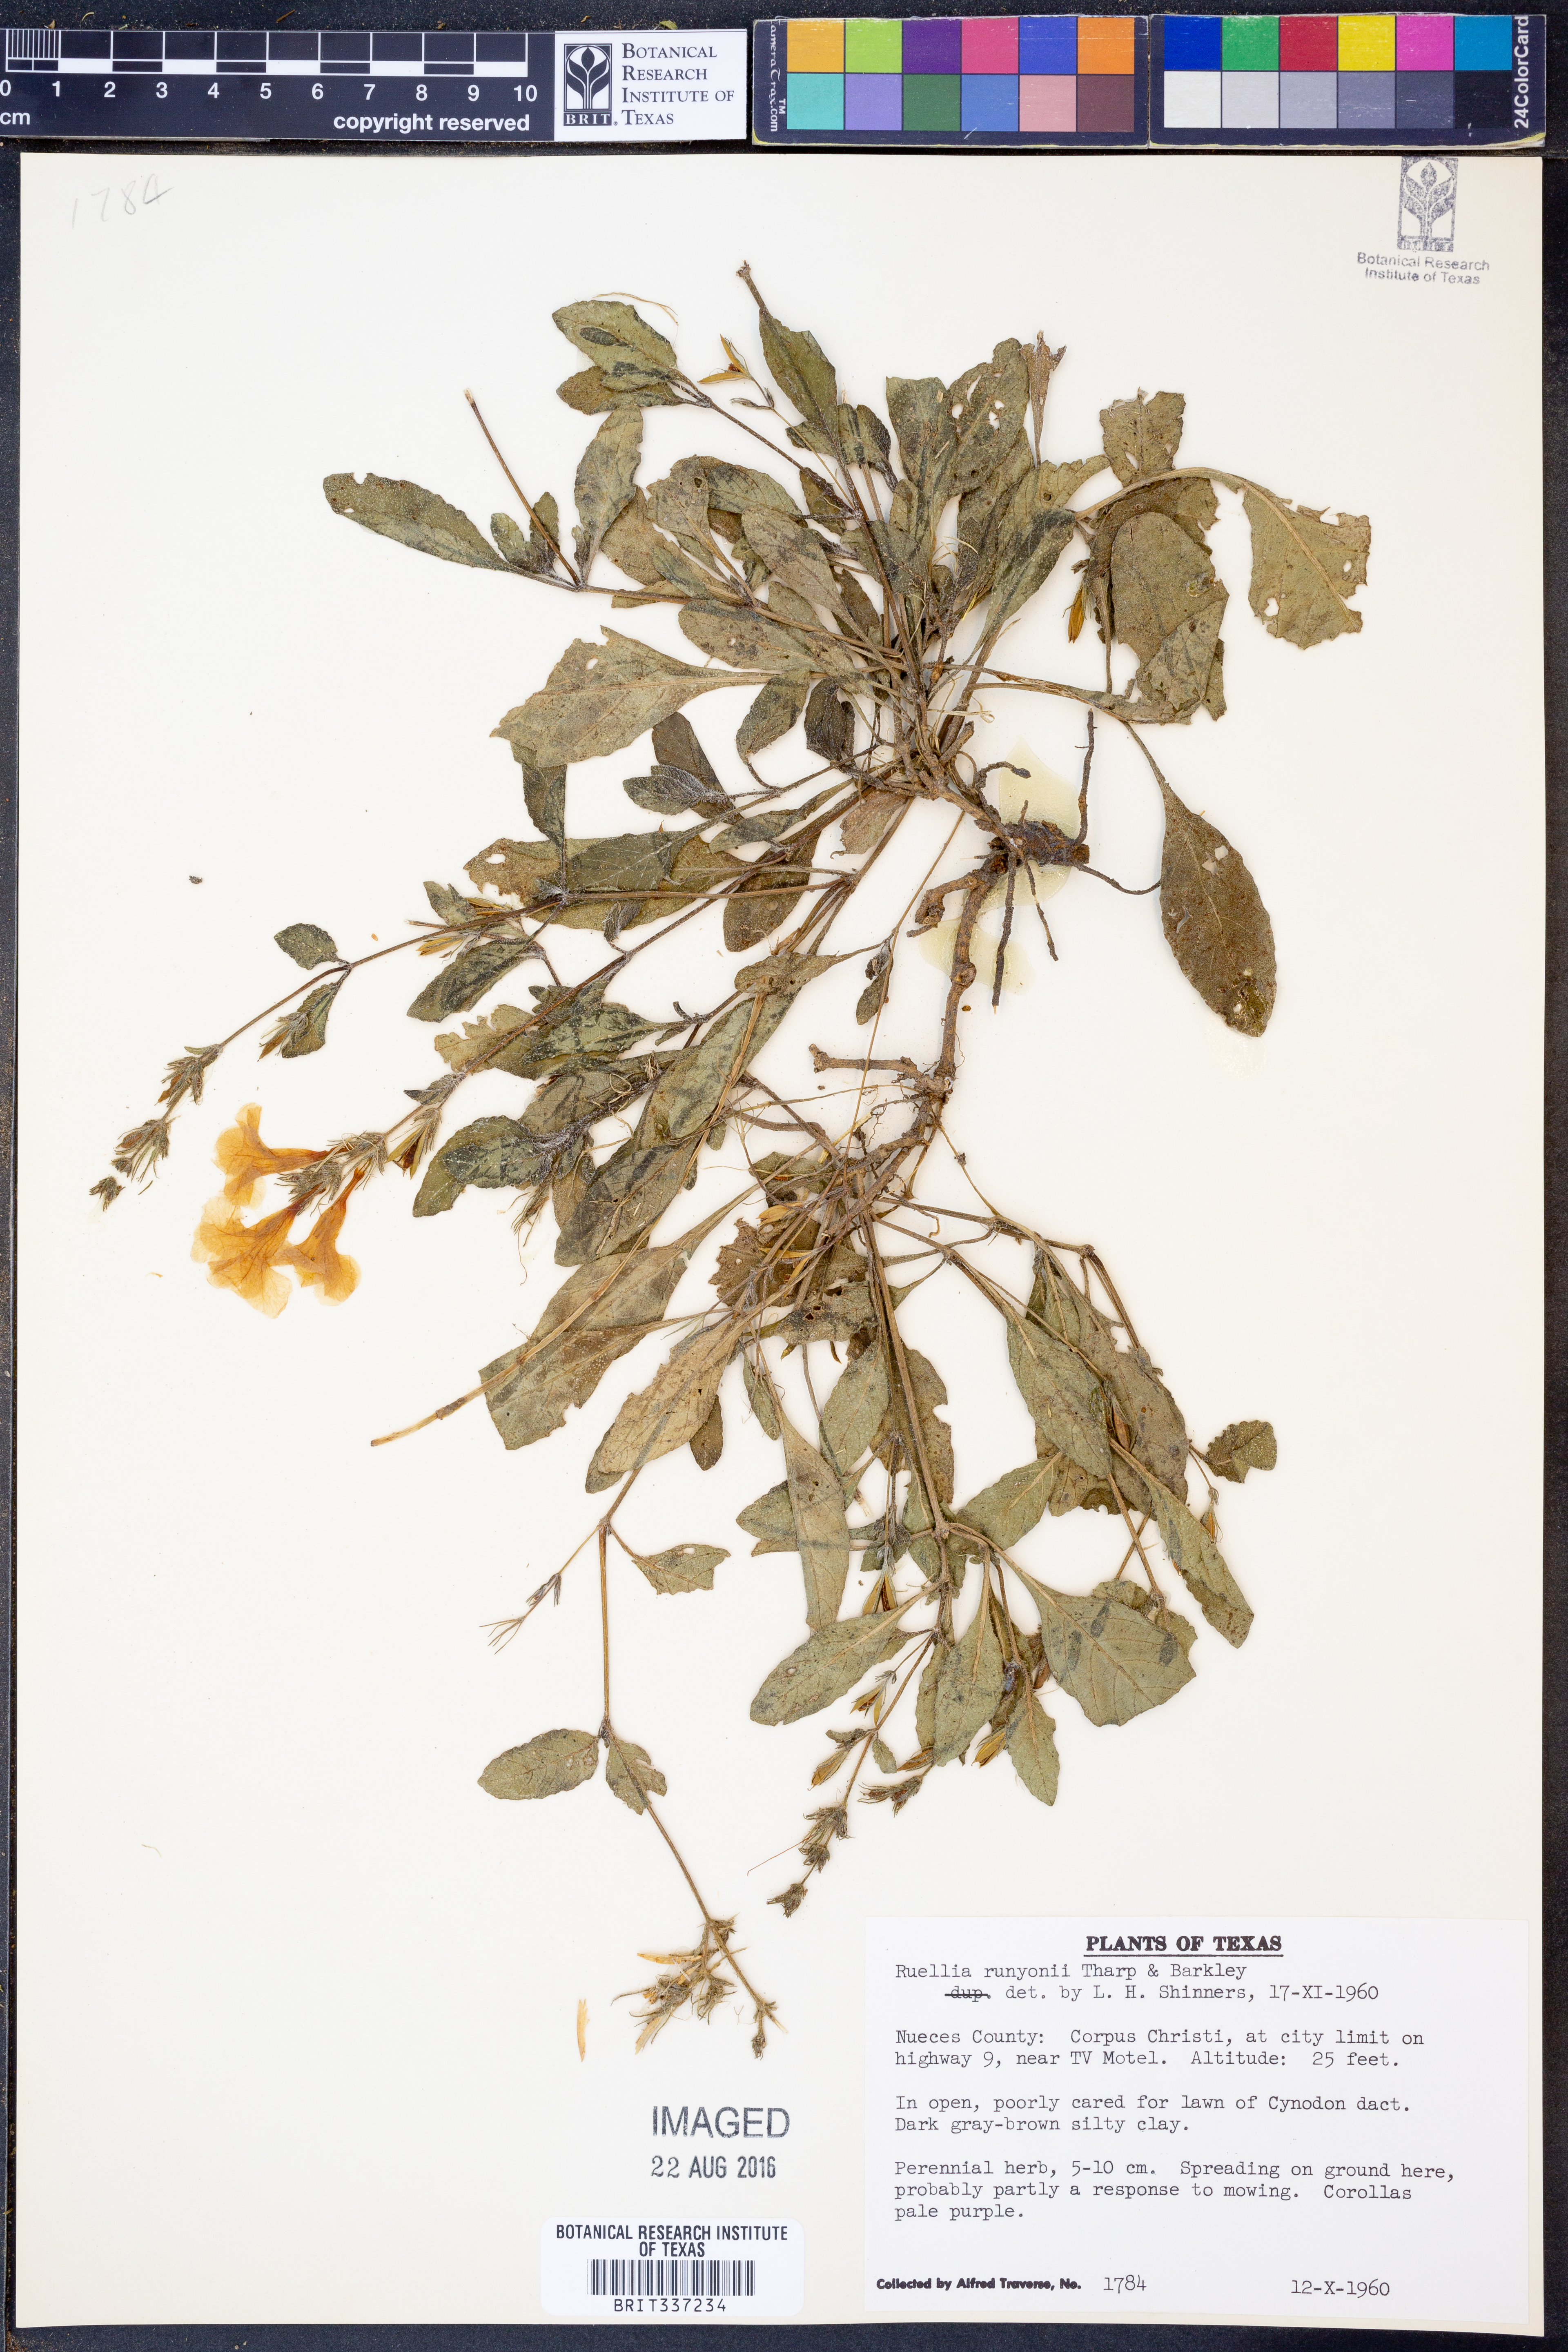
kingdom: Plantae
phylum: Tracheophyta
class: Magnoliopsida
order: Lamiales
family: Acanthaceae
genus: Ruellia
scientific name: Ruellia ciliatiflora
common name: Hairyflower wild petunia
